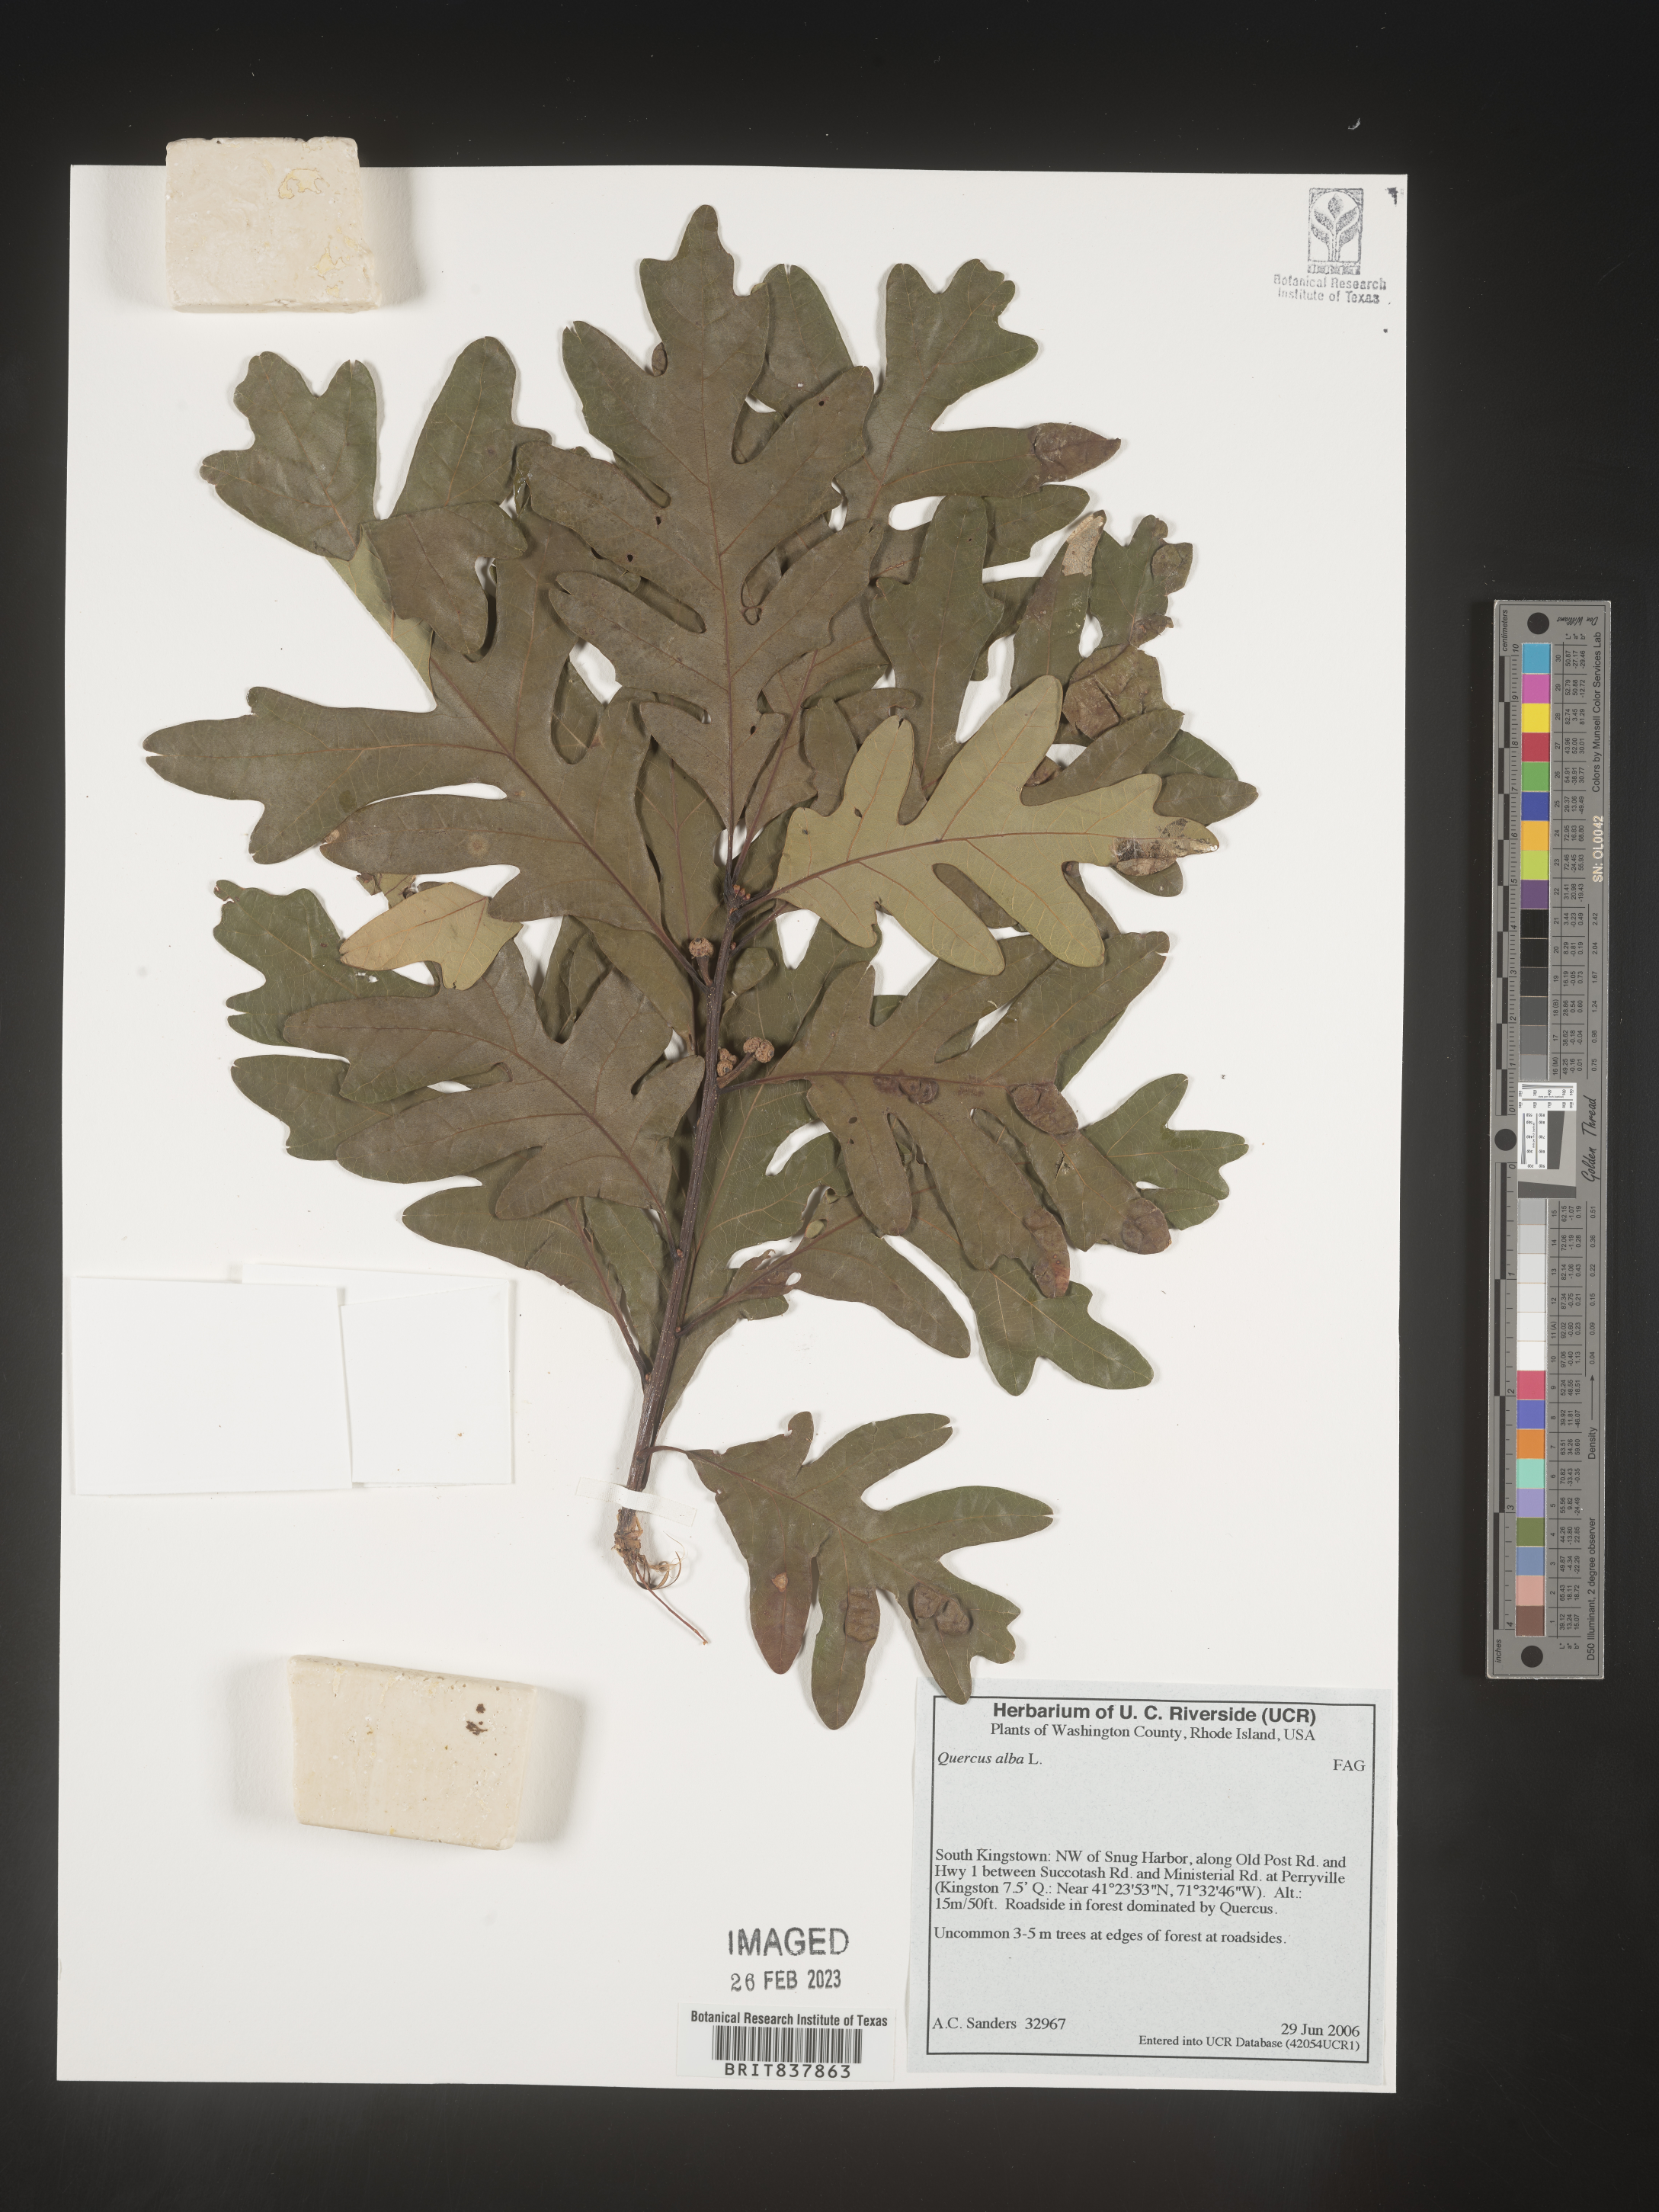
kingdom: Plantae
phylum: Tracheophyta
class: Magnoliopsida
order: Fagales
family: Fagaceae
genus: Quercus
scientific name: Quercus alba
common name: White oak
